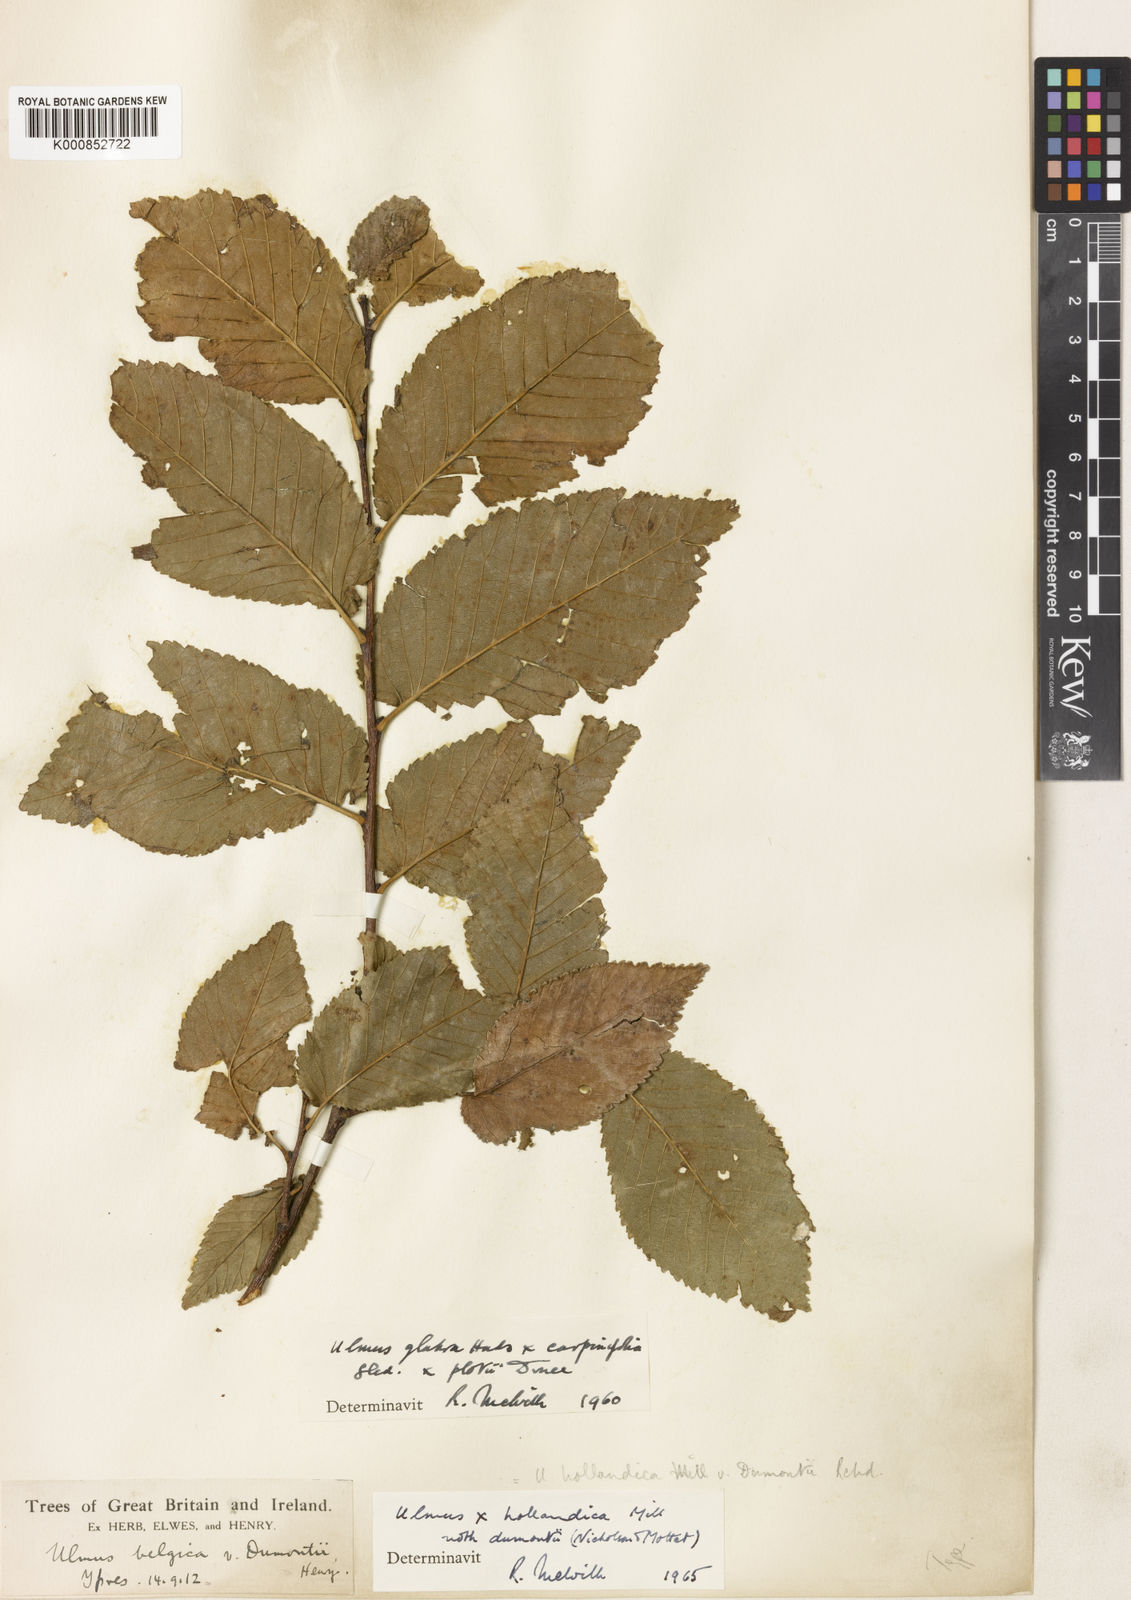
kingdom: Plantae
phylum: Tracheophyta
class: Magnoliopsida
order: Rosales
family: Ulmaceae
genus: Ulmus
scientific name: Ulmus hollandica
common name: Dutch elm
